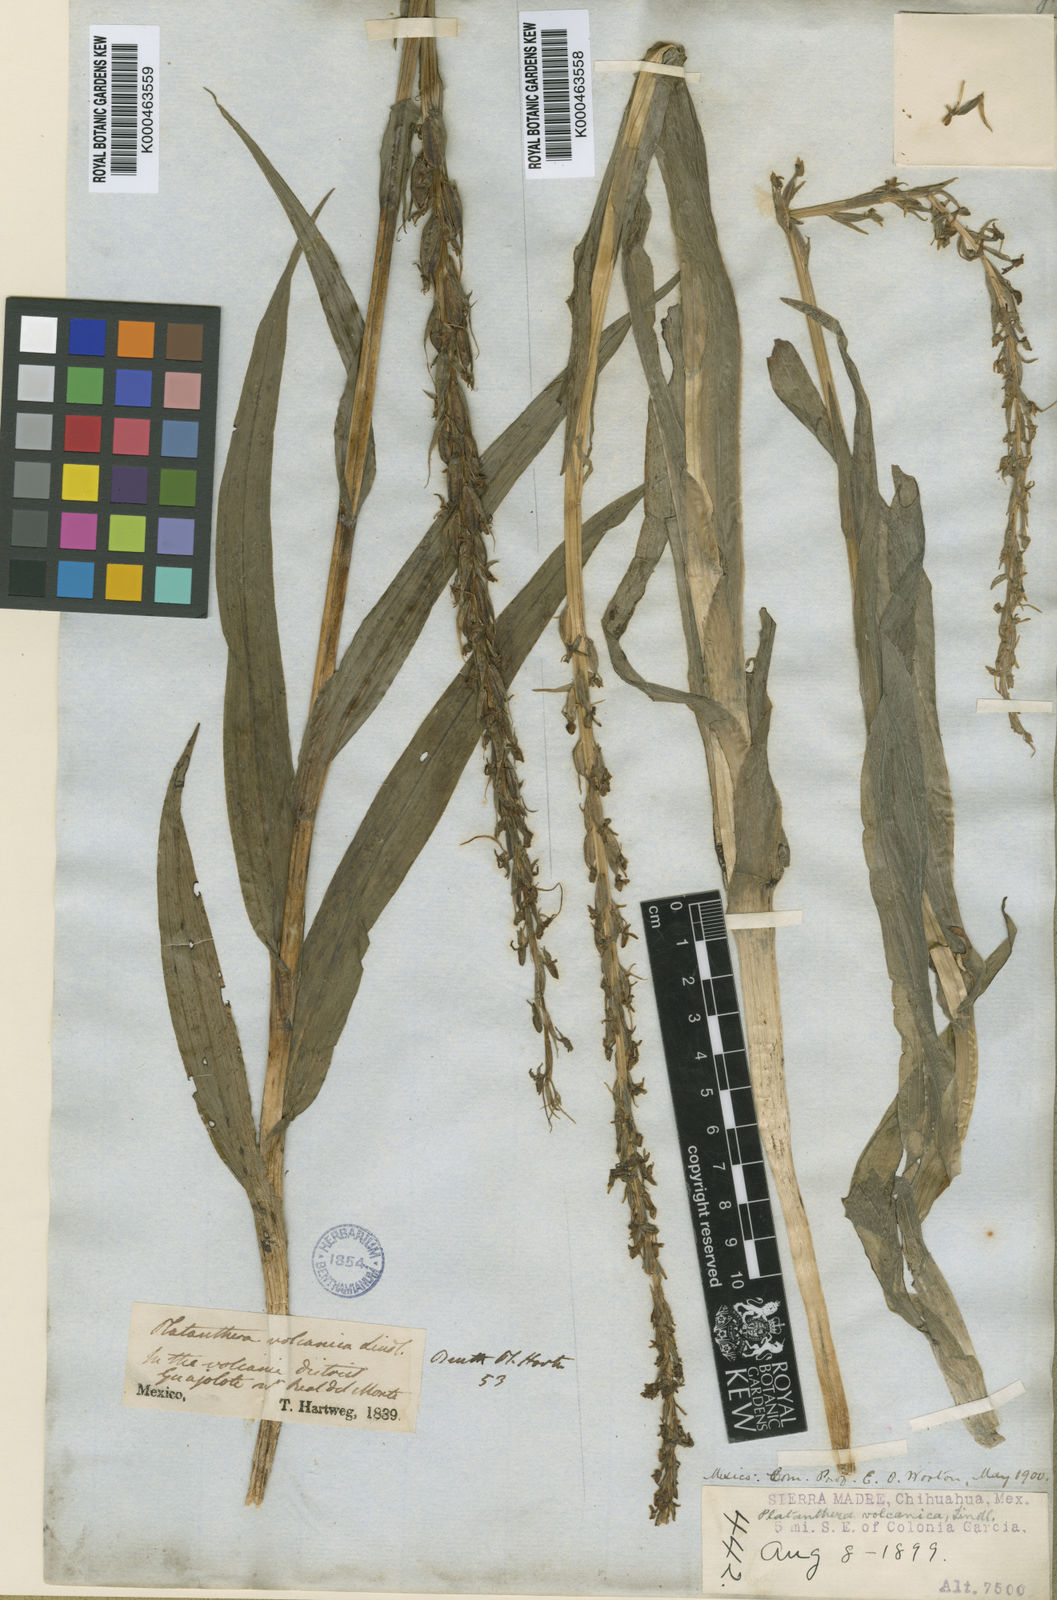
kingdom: Plantae
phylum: Tracheophyta
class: Liliopsida
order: Asparagales
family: Orchidaceae
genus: Coenoemersa
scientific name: Coenoemersa limosa
